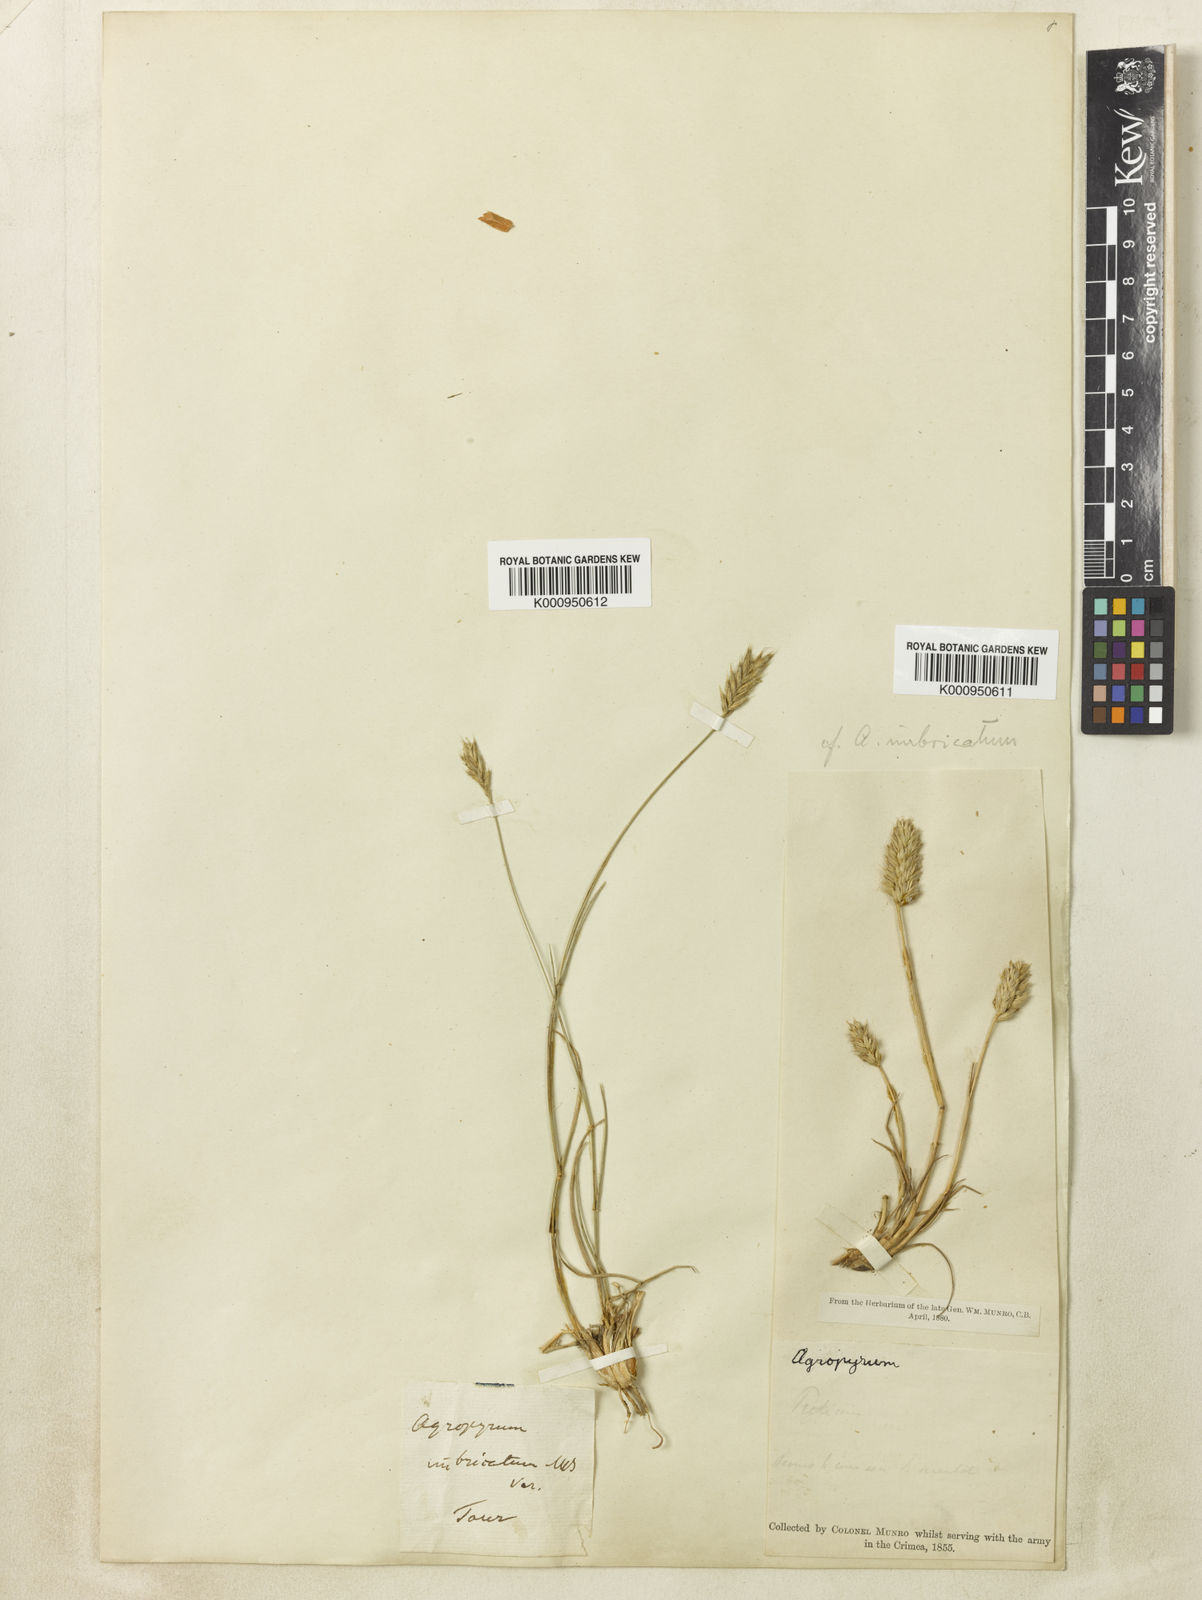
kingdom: Plantae
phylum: Tracheophyta
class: Liliopsida
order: Poales
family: Poaceae
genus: Agropyron
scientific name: Agropyron cristatum
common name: Crested wheatgrass
